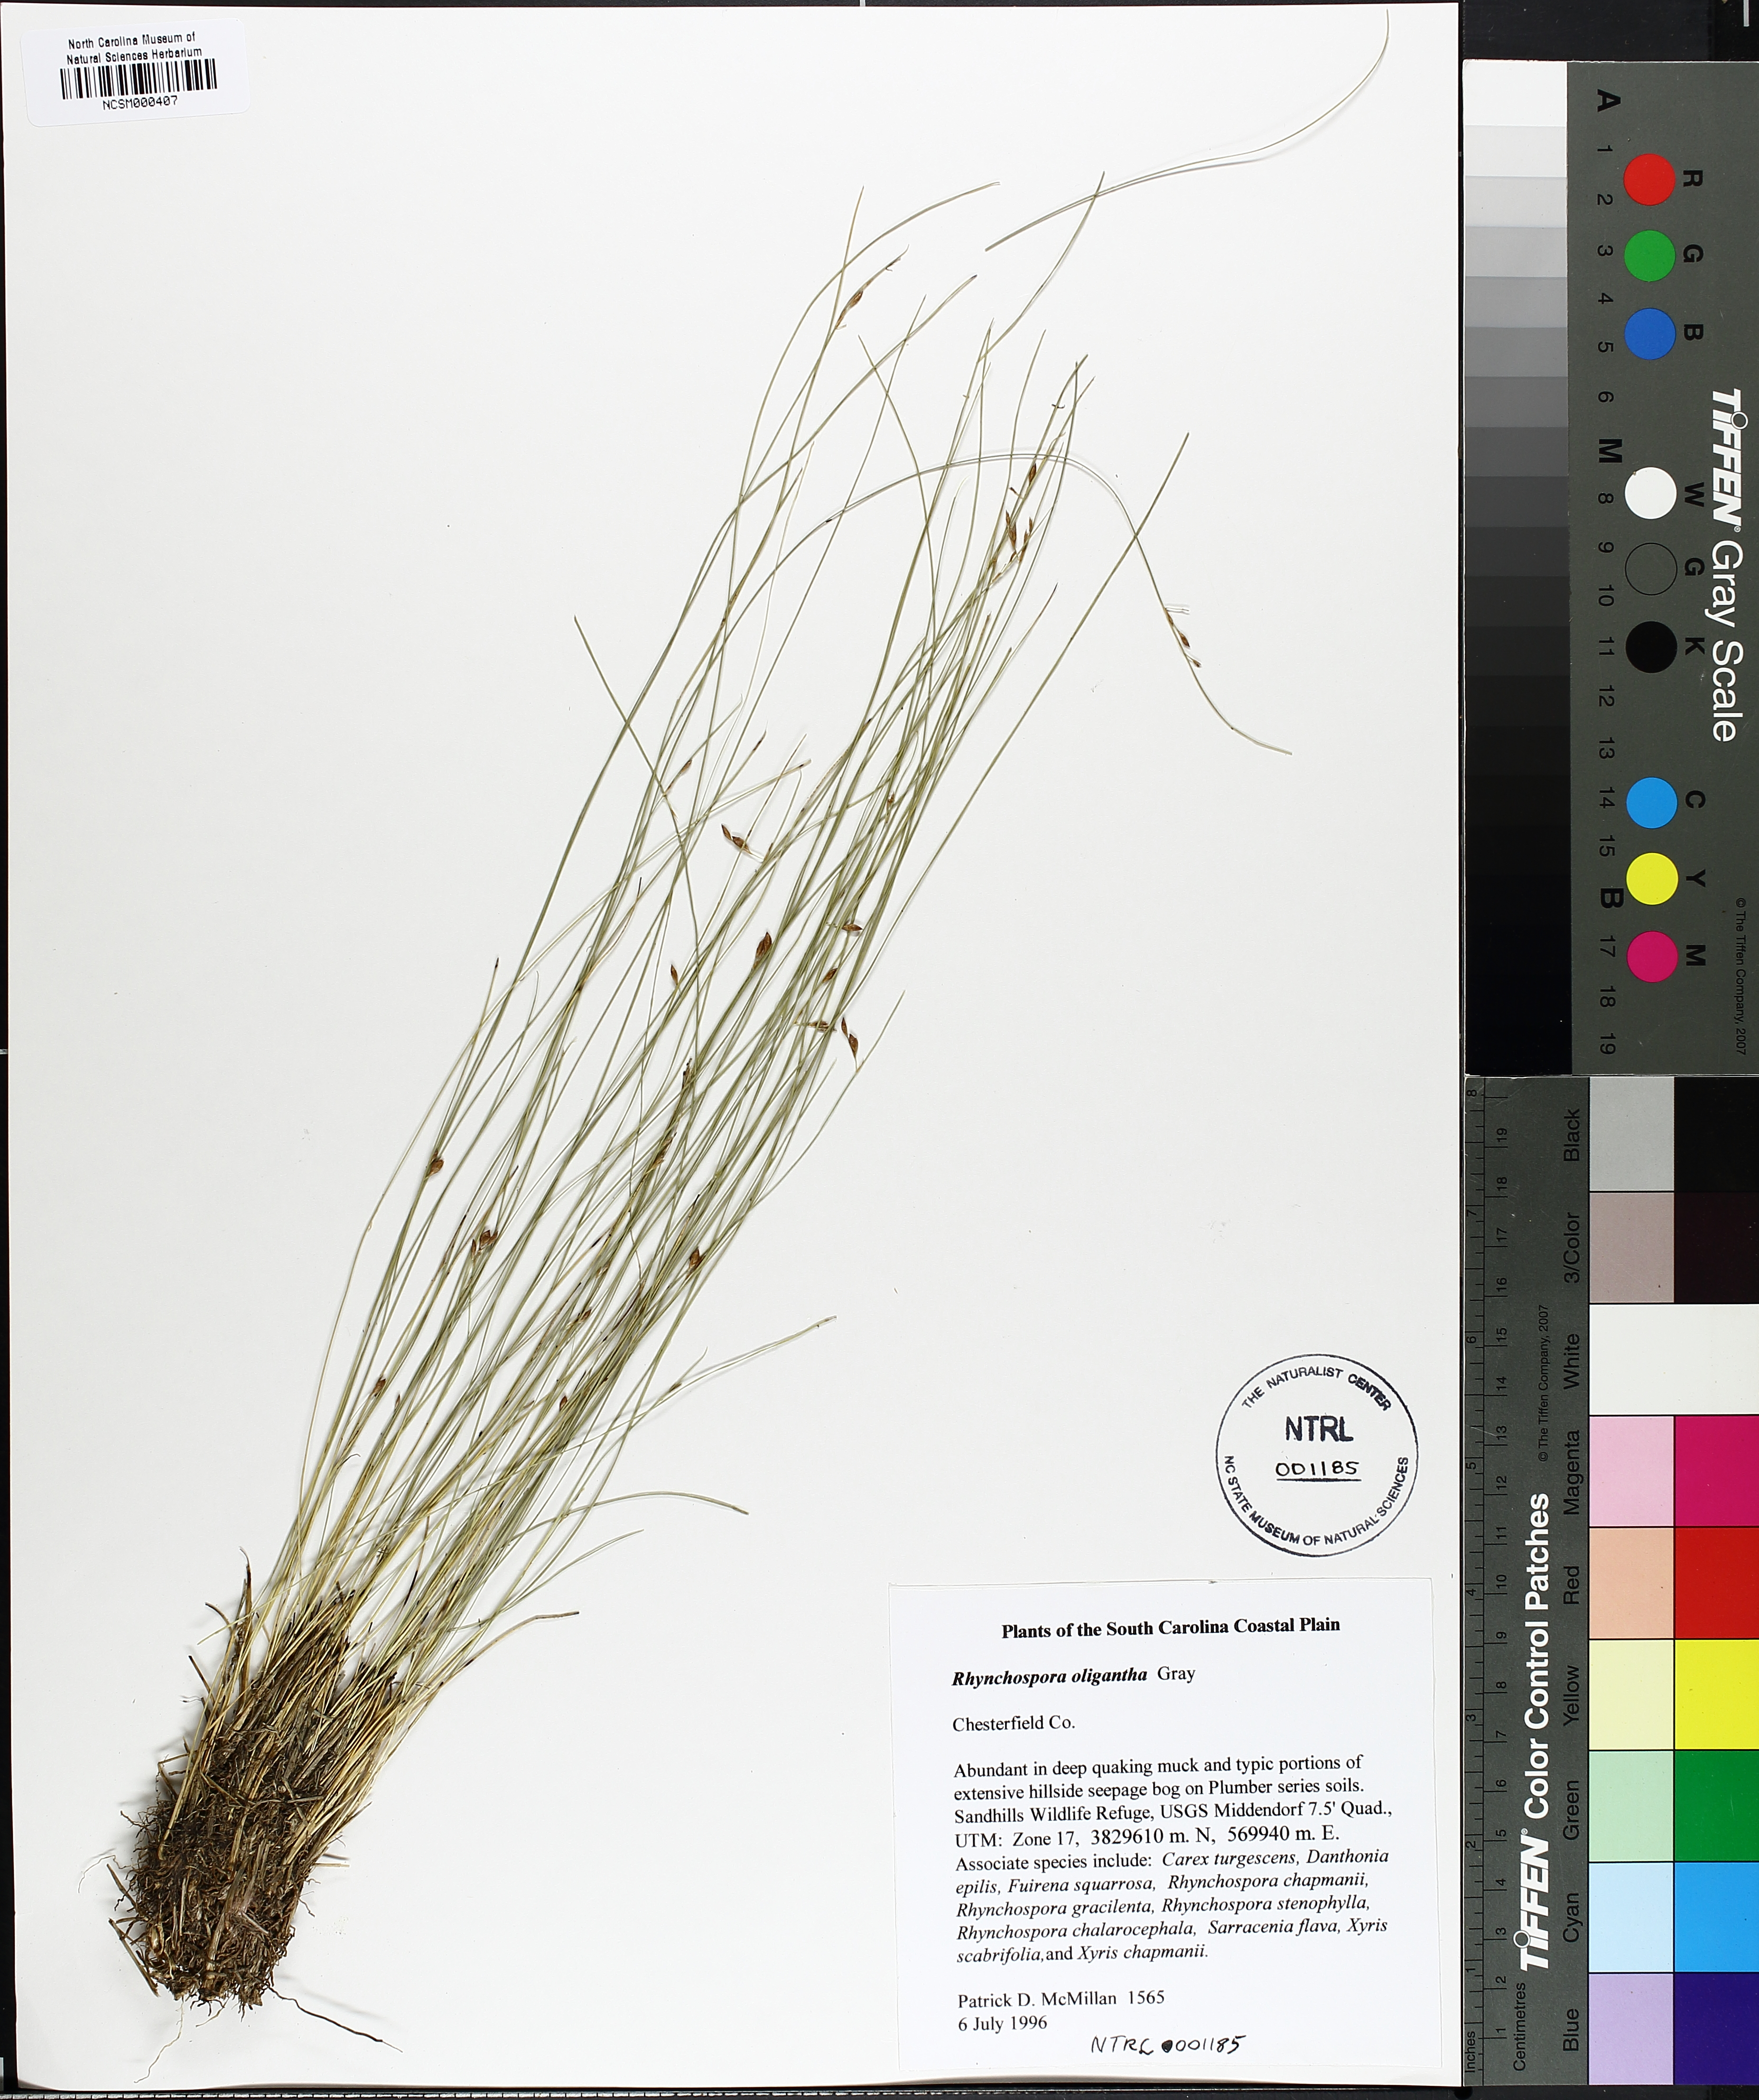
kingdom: Plantae
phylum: Tracheophyta
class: Liliopsida
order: Poales
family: Cyperaceae
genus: Rhynchospora
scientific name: Rhynchospora oligantha
